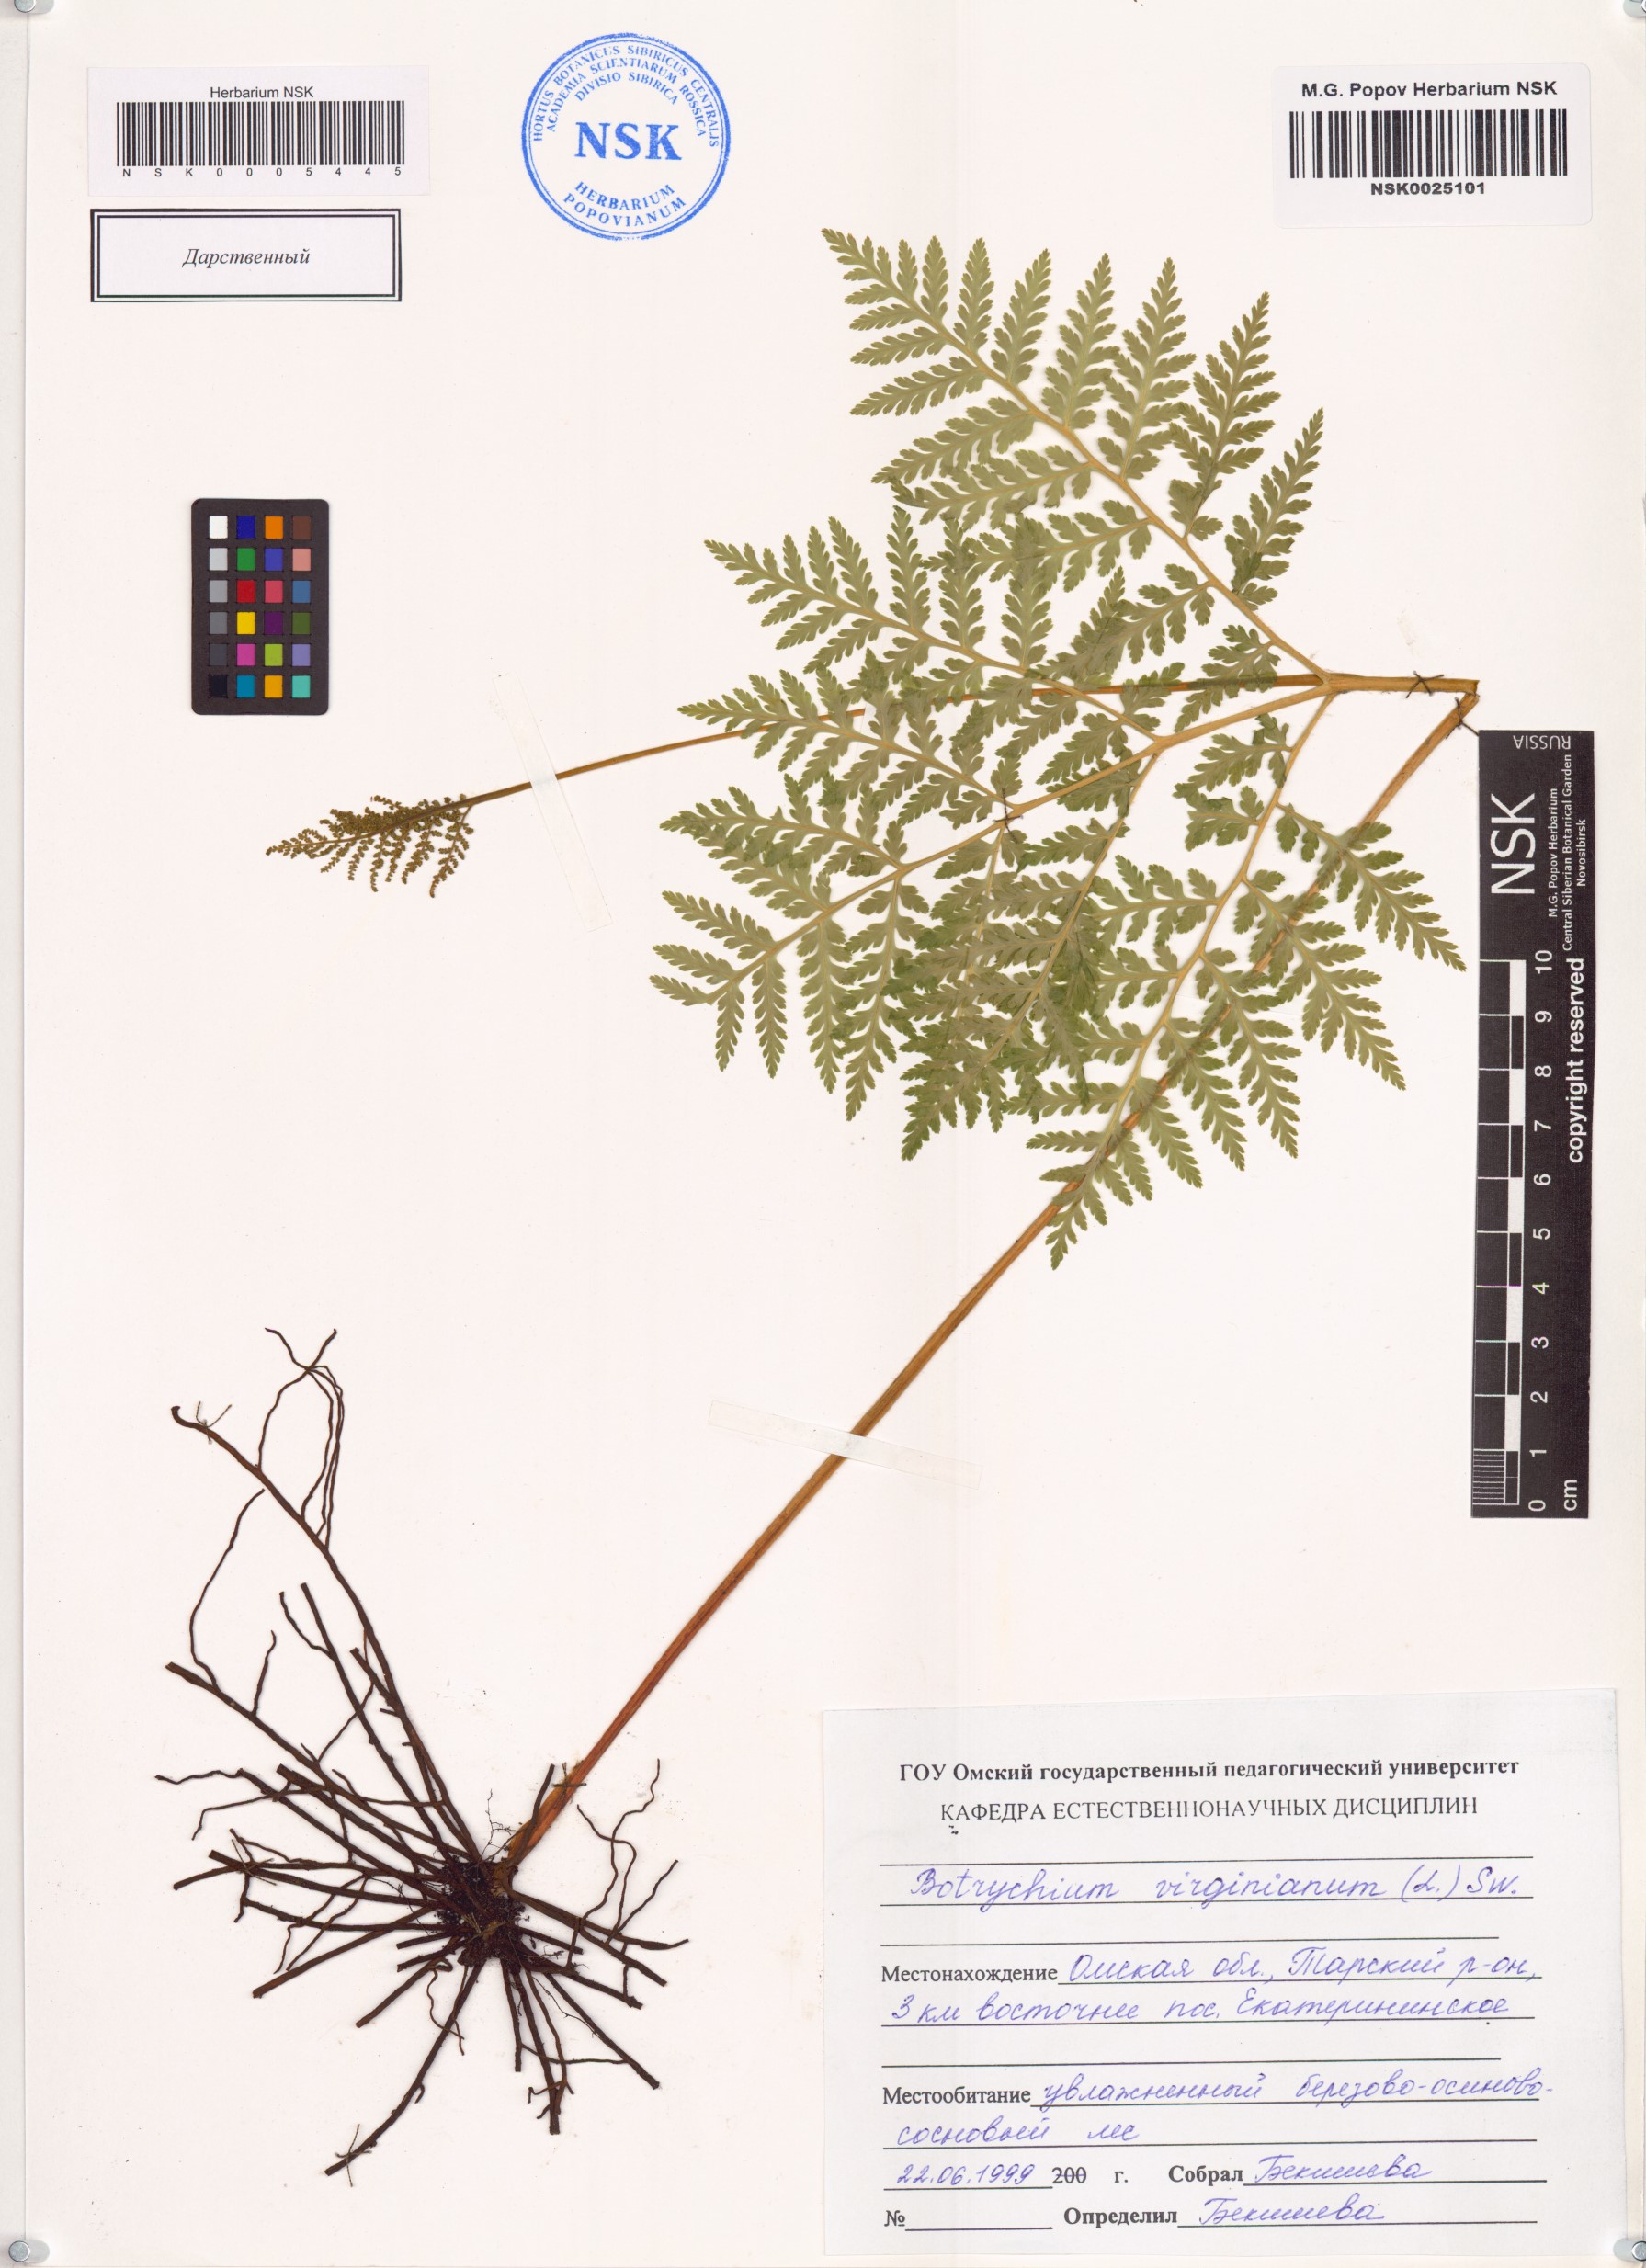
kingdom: Plantae
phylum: Tracheophyta
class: Polypodiopsida
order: Ophioglossales
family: Ophioglossaceae
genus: Botrypus
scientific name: Botrypus virginianus
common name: Common grapefern
